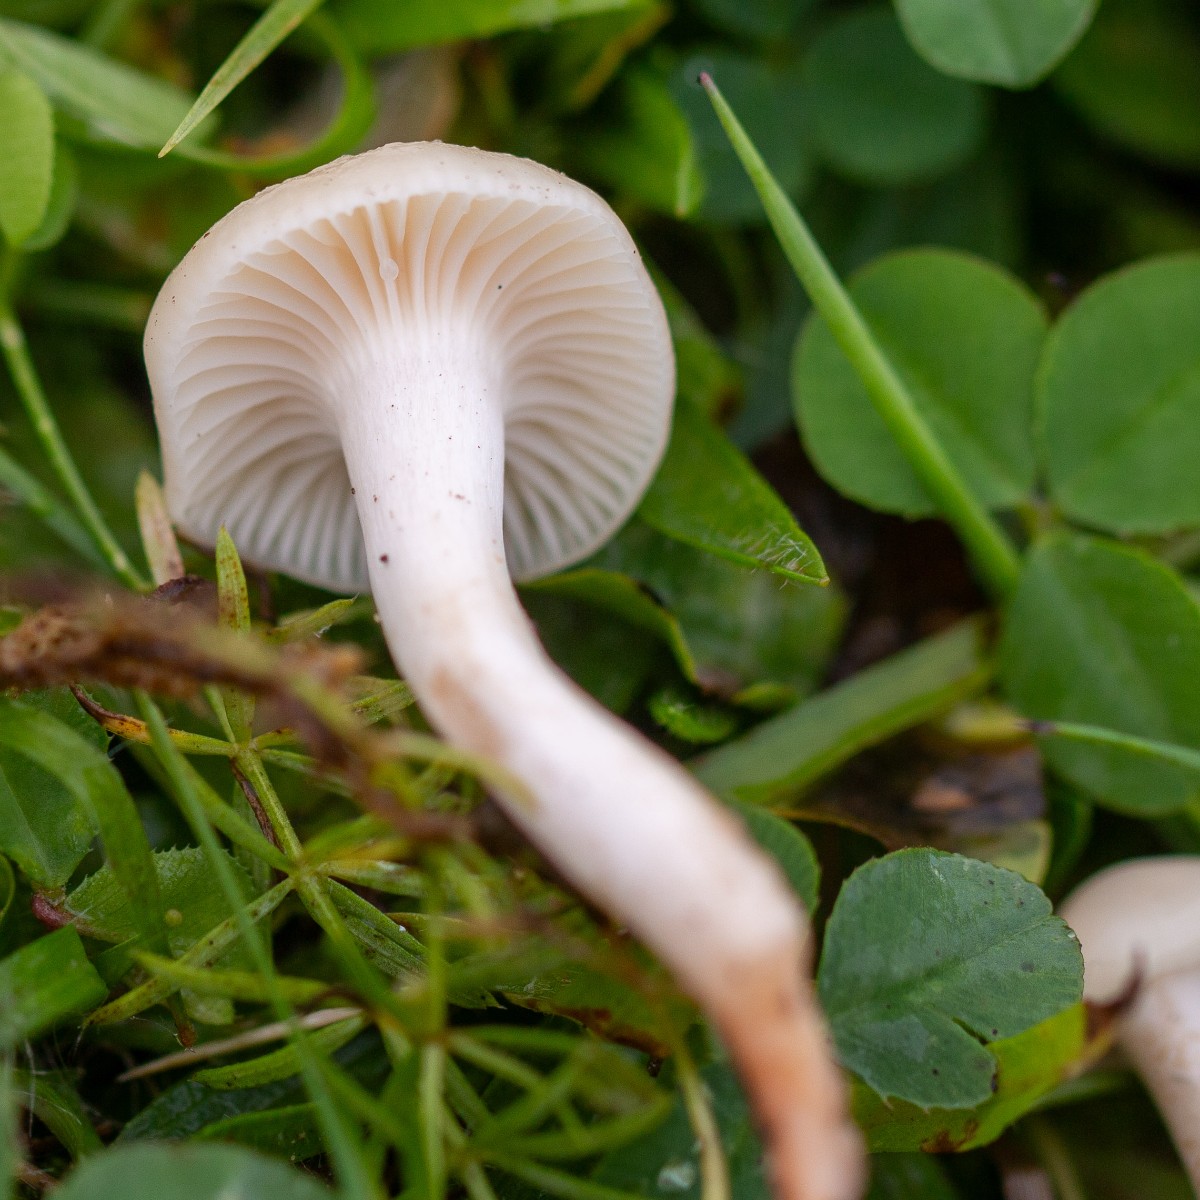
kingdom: Fungi
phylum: Basidiomycota
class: Agaricomycetes
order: Agaricales
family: Hygrophoraceae
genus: Cuphophyllus
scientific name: Cuphophyllus virgineus
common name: snehvid vokshat
